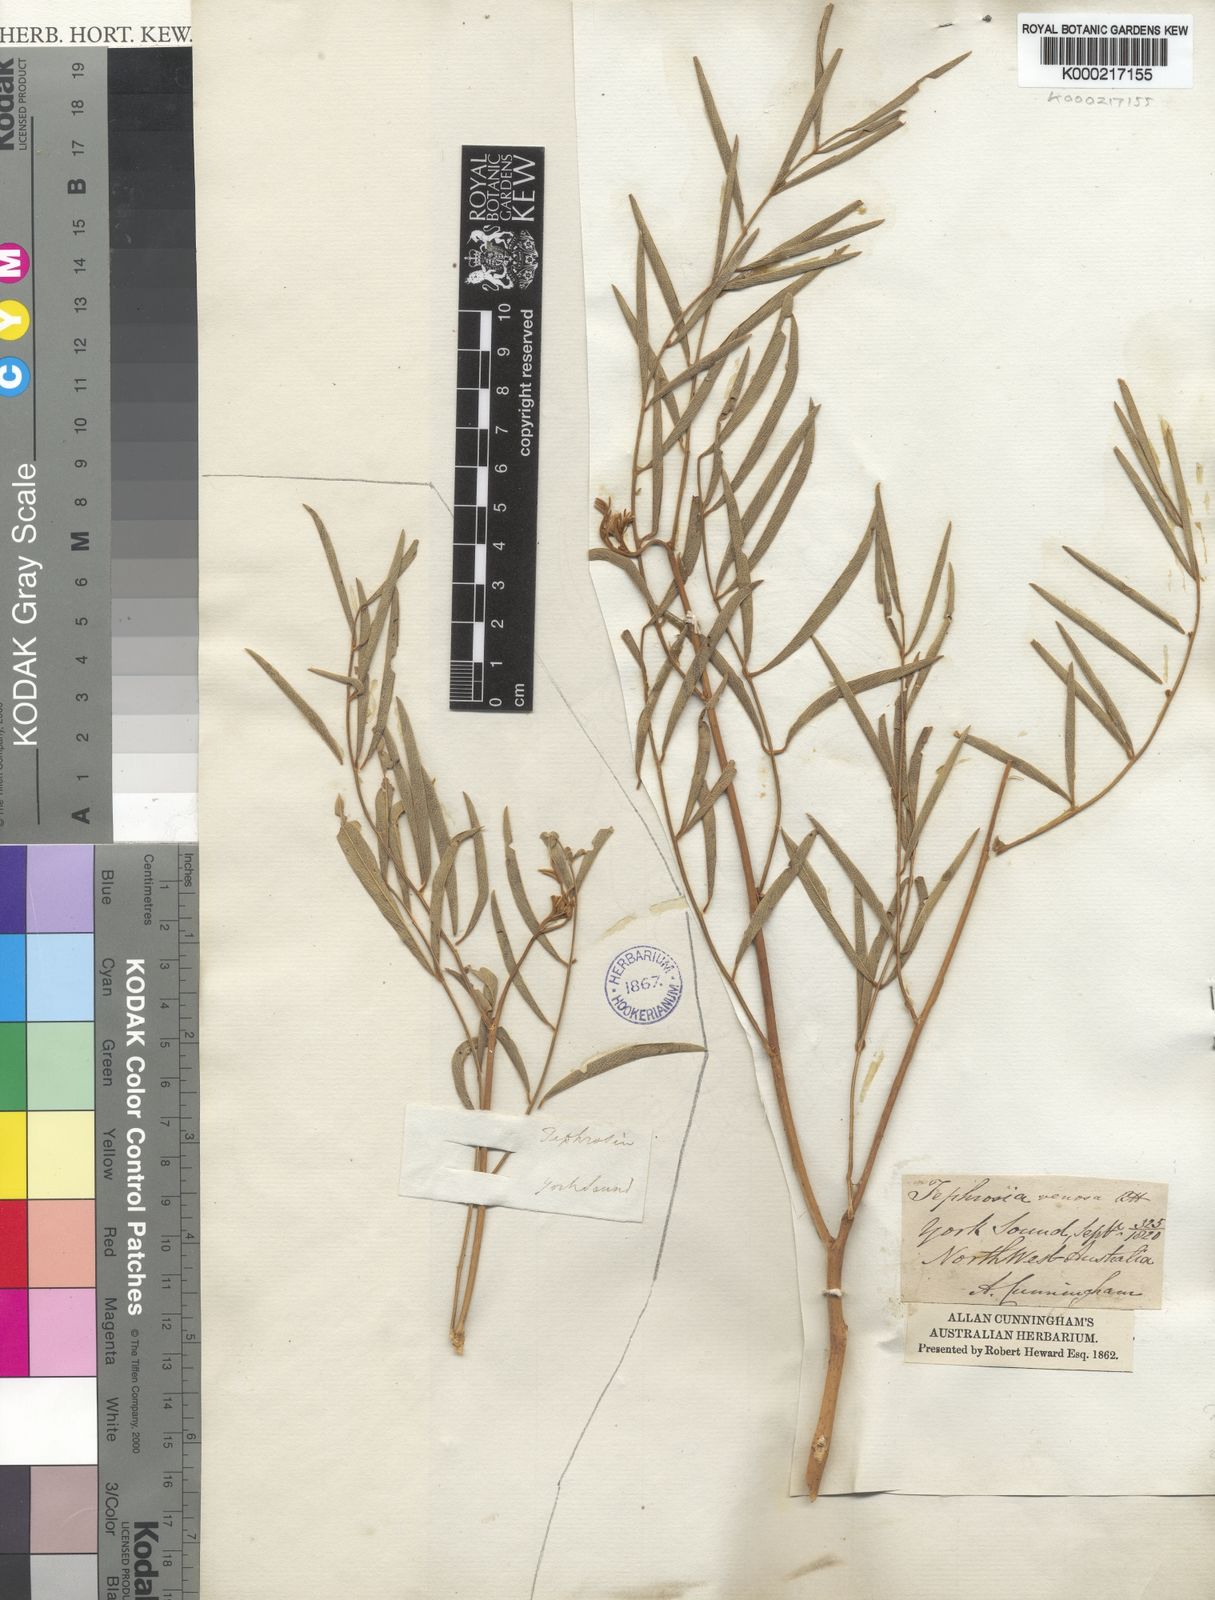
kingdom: Plantae
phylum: Tracheophyta
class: Magnoliopsida
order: Fabales
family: Fabaceae
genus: Tephrosia
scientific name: Tephrosia
